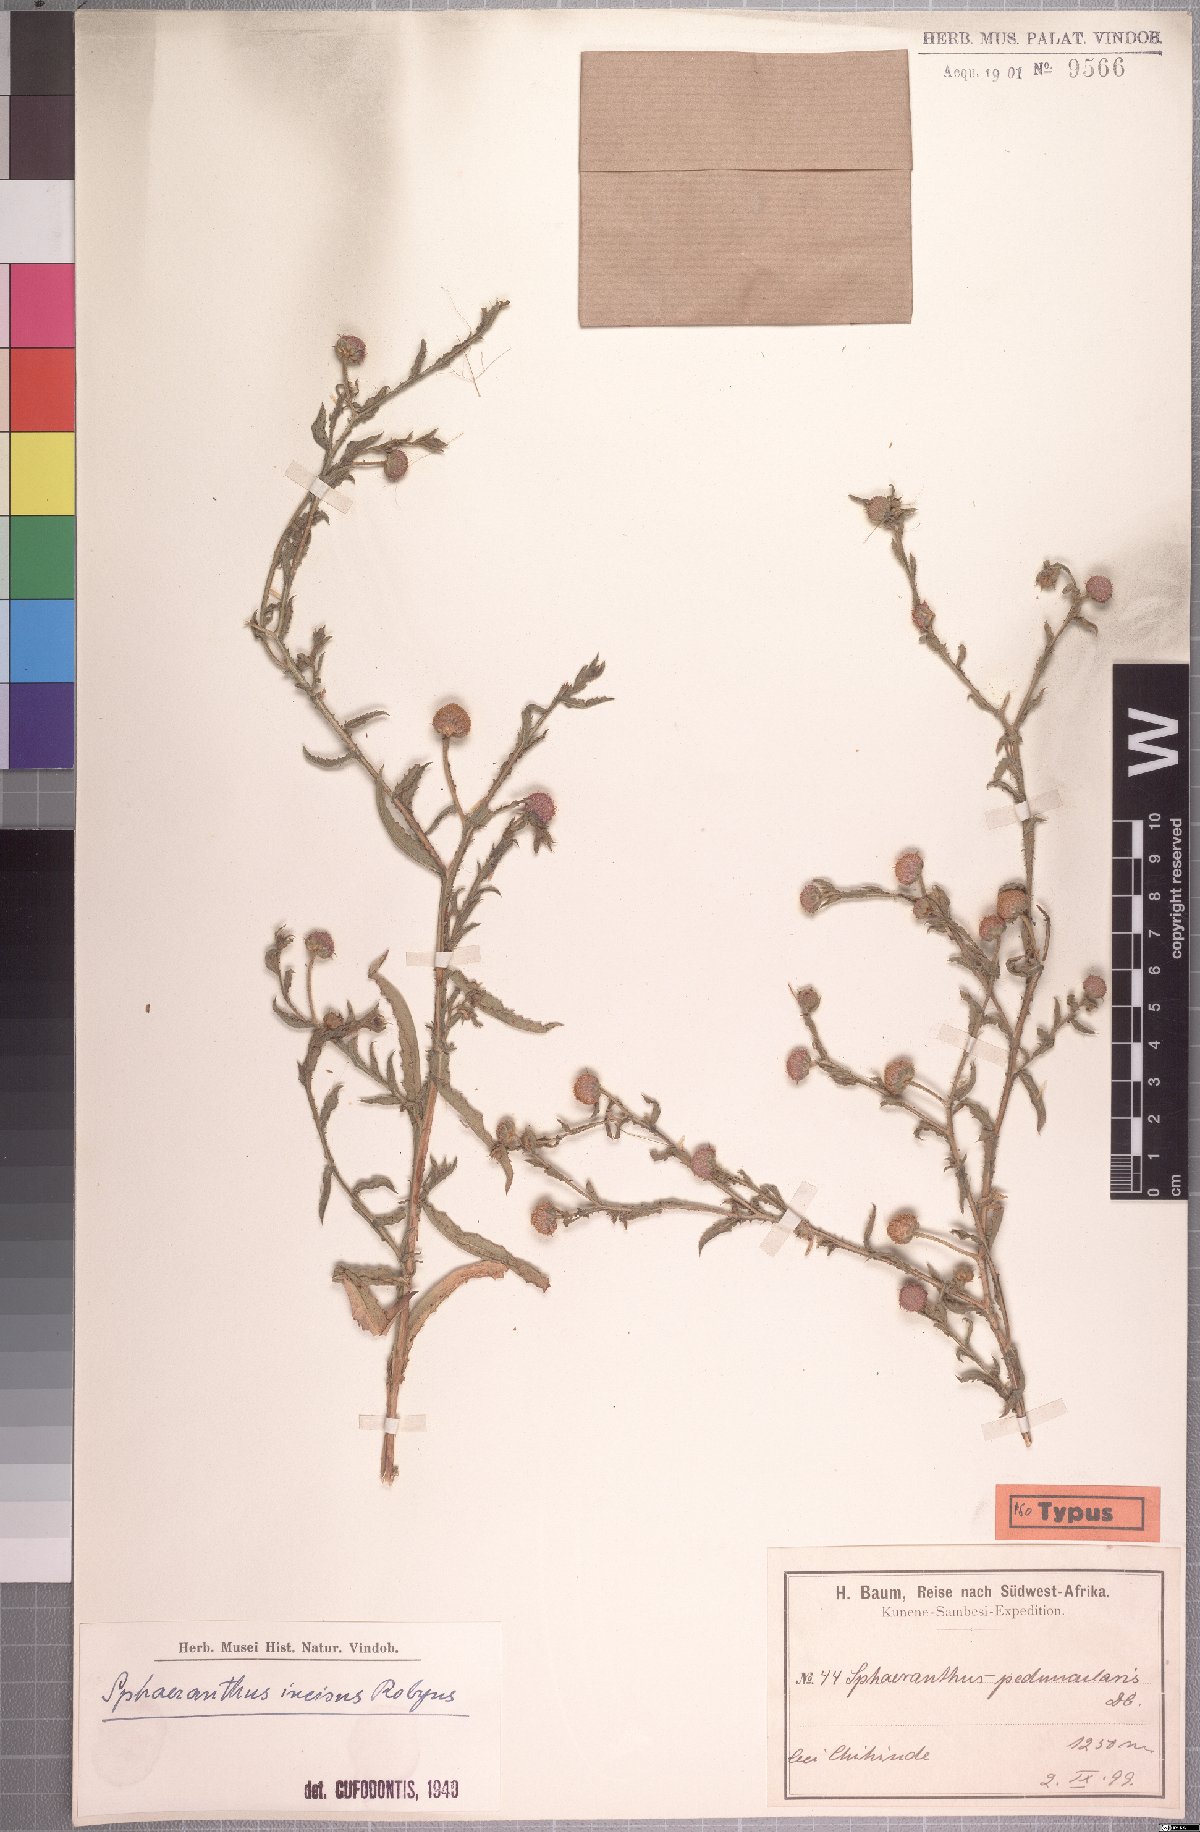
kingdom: Plantae
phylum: Tracheophyta
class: Magnoliopsida
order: Asterales
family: Asteraceae
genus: Sphaeranthus
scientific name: Sphaeranthus peduncularis
